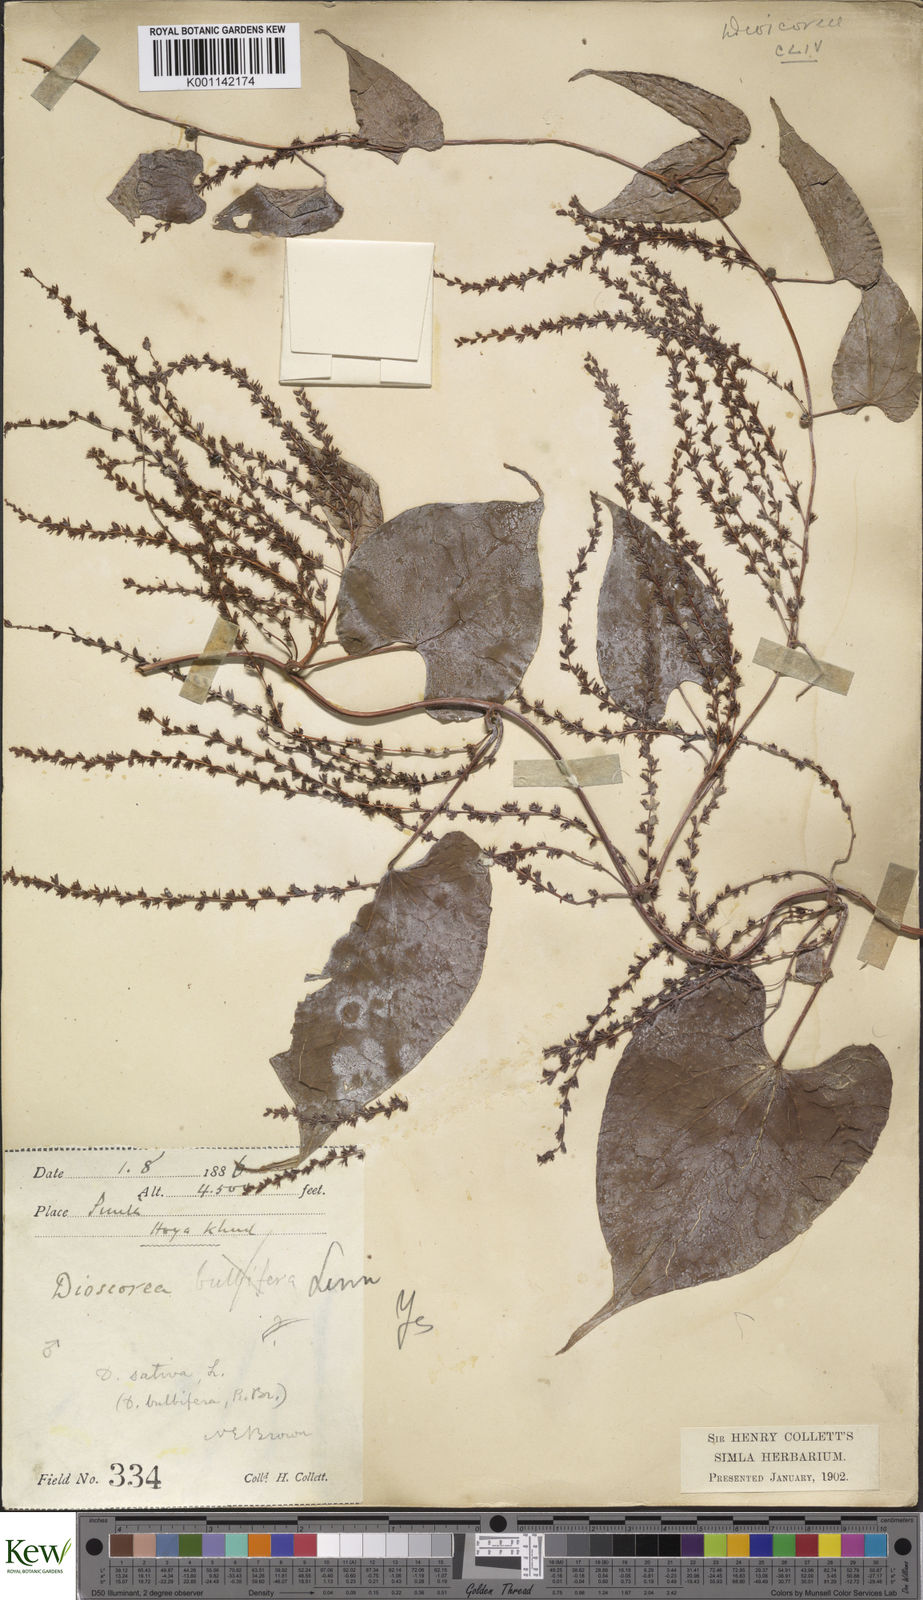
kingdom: Plantae
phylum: Tracheophyta
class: Liliopsida
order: Dioscoreales
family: Dioscoreaceae
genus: Dioscorea
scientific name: Dioscorea bulbifera
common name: Air yam
